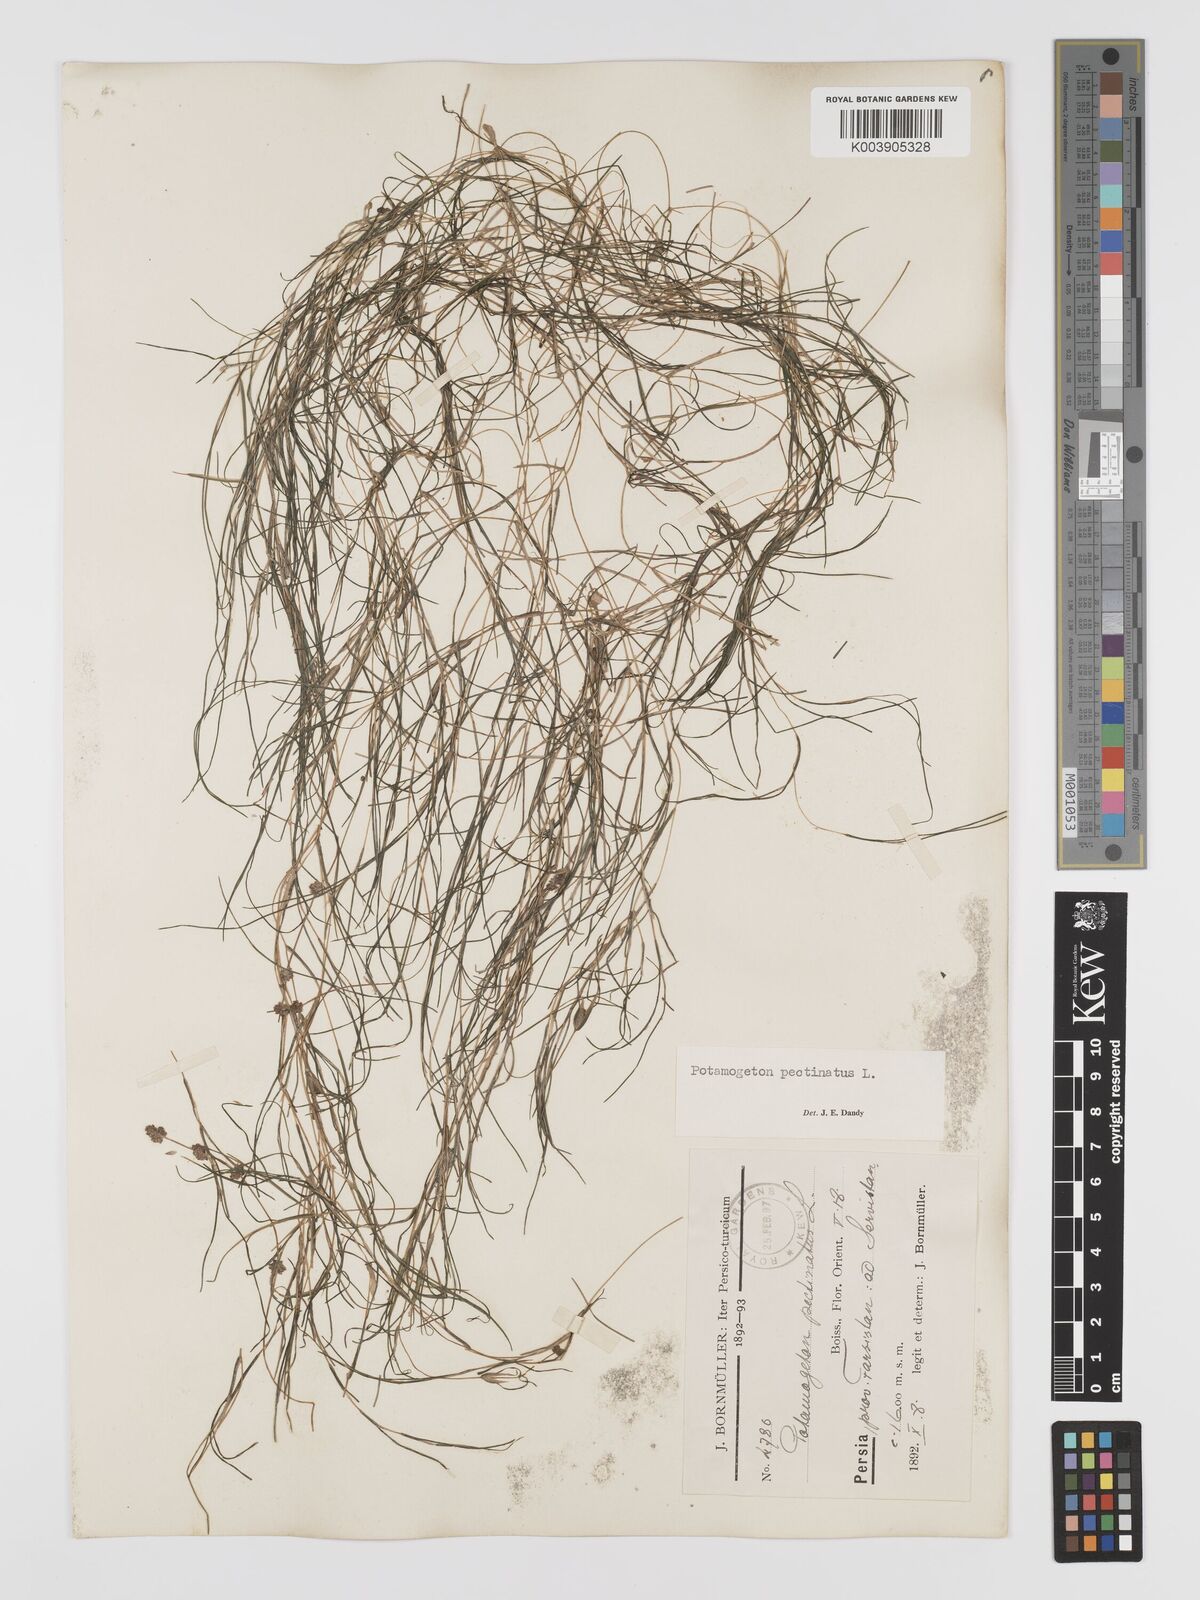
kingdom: Plantae
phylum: Tracheophyta
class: Liliopsida
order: Alismatales
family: Potamogetonaceae
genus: Stuckenia
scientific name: Stuckenia pectinata
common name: Sago pondweed
